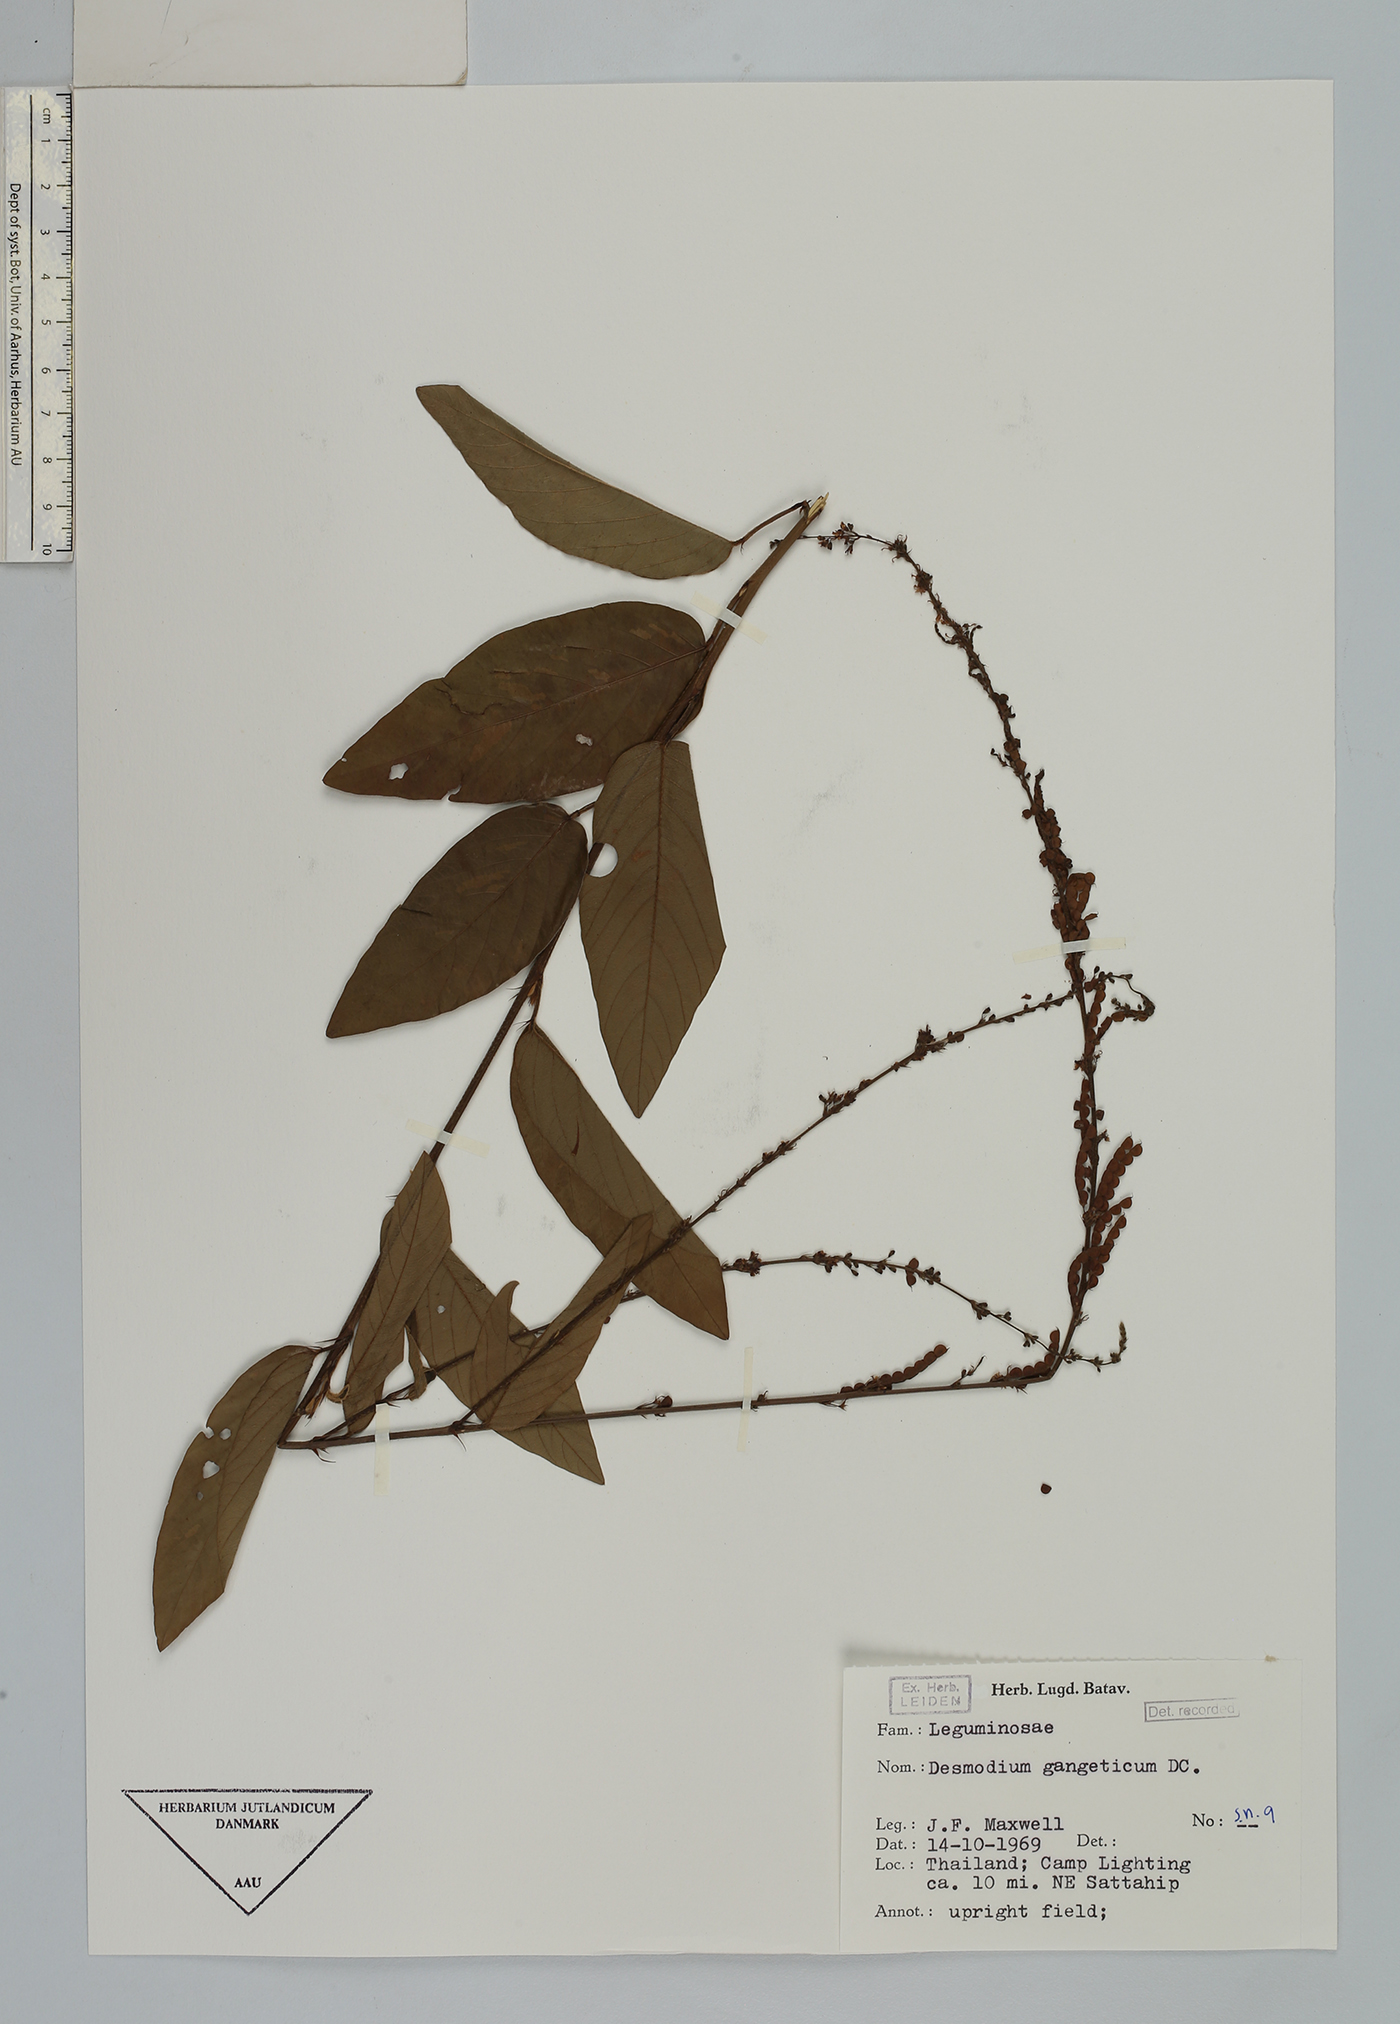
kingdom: Plantae
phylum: Tracheophyta
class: Magnoliopsida
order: Fabales
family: Fabaceae
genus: Pleurolobus
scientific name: Pleurolobus gangeticus
